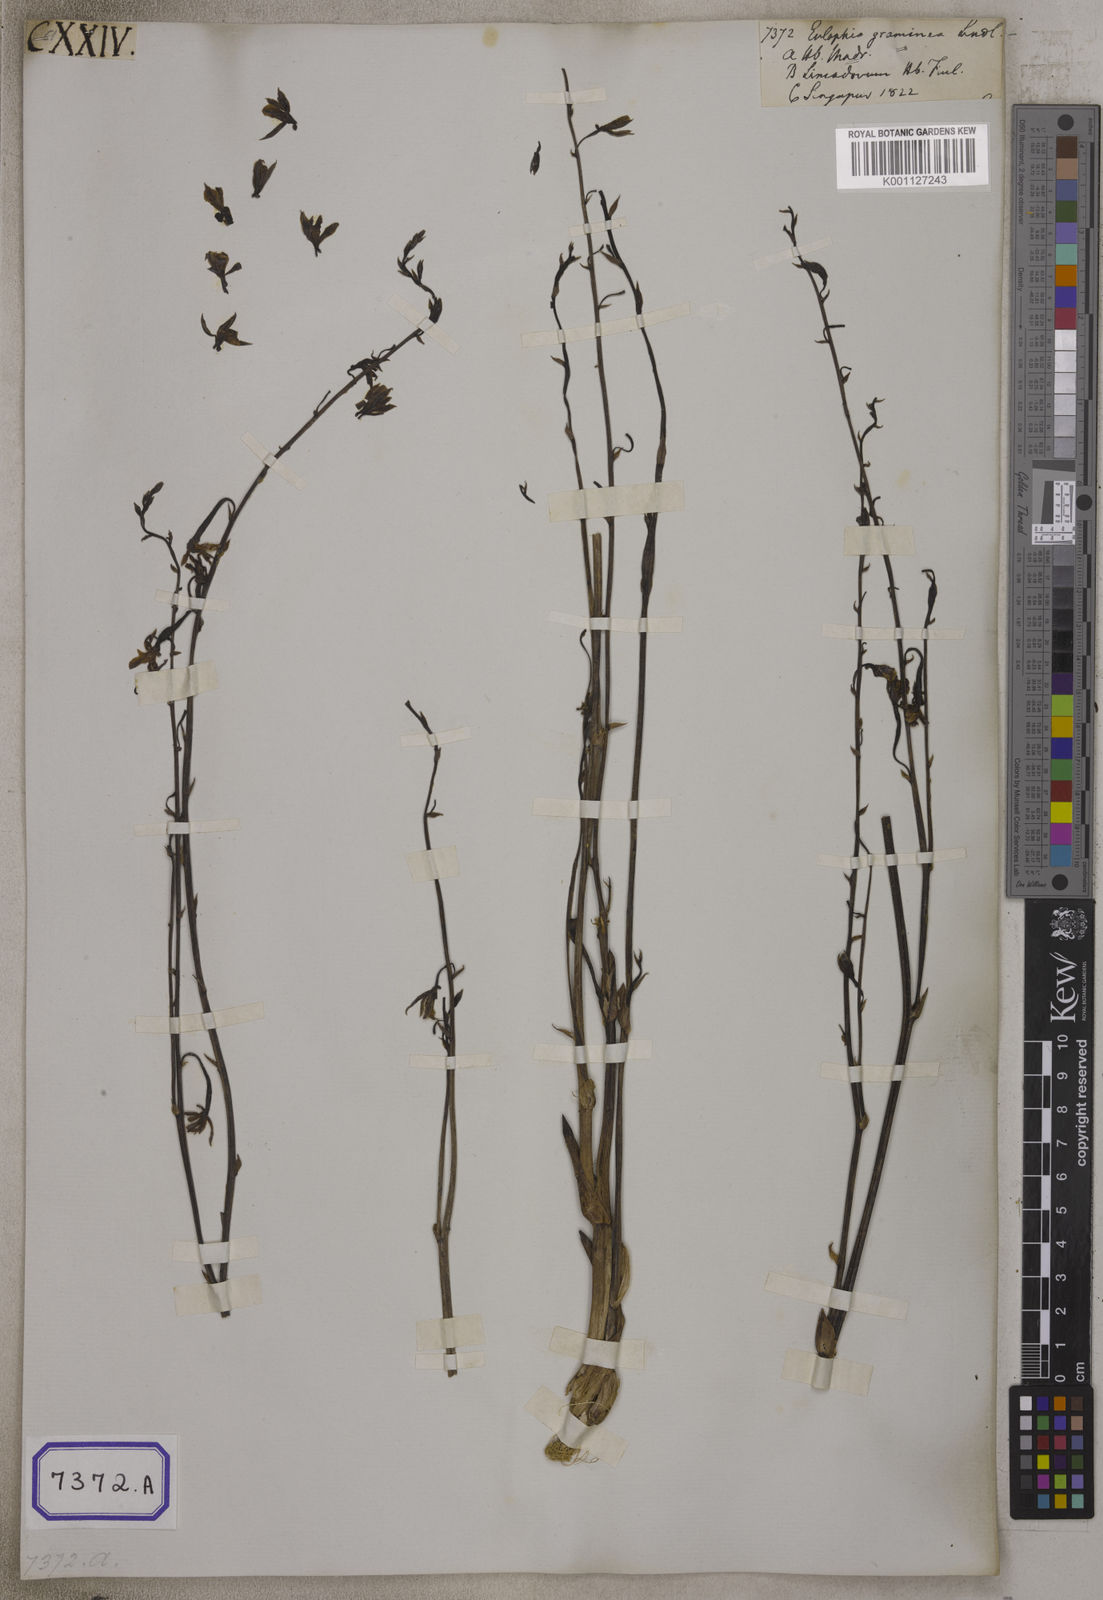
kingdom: Plantae
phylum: Tracheophyta
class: Liliopsida
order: Asparagales
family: Orchidaceae
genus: Eulophia
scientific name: Eulophia graminea
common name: Orchid
